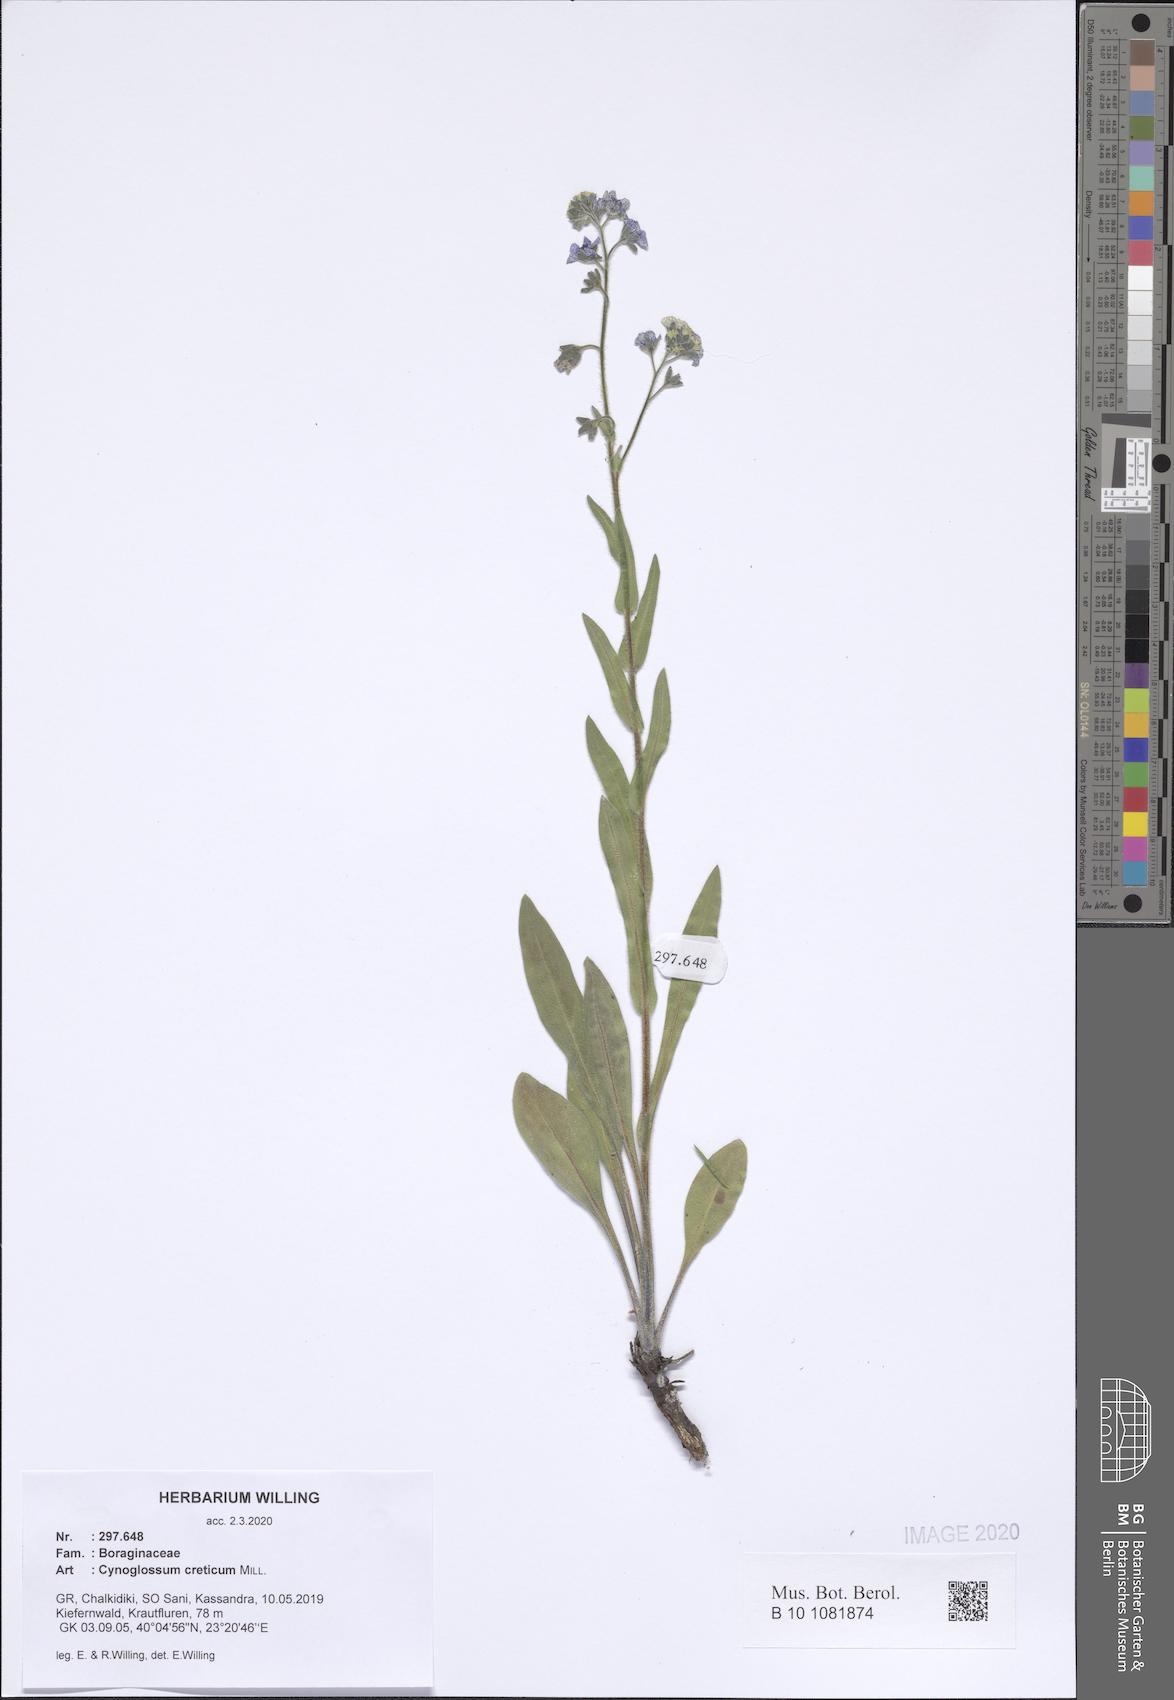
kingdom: Plantae
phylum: Tracheophyta
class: Magnoliopsida
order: Boraginales
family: Boraginaceae
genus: Cynoglossum
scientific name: Cynoglossum creticum
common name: Blue hound's tongue
